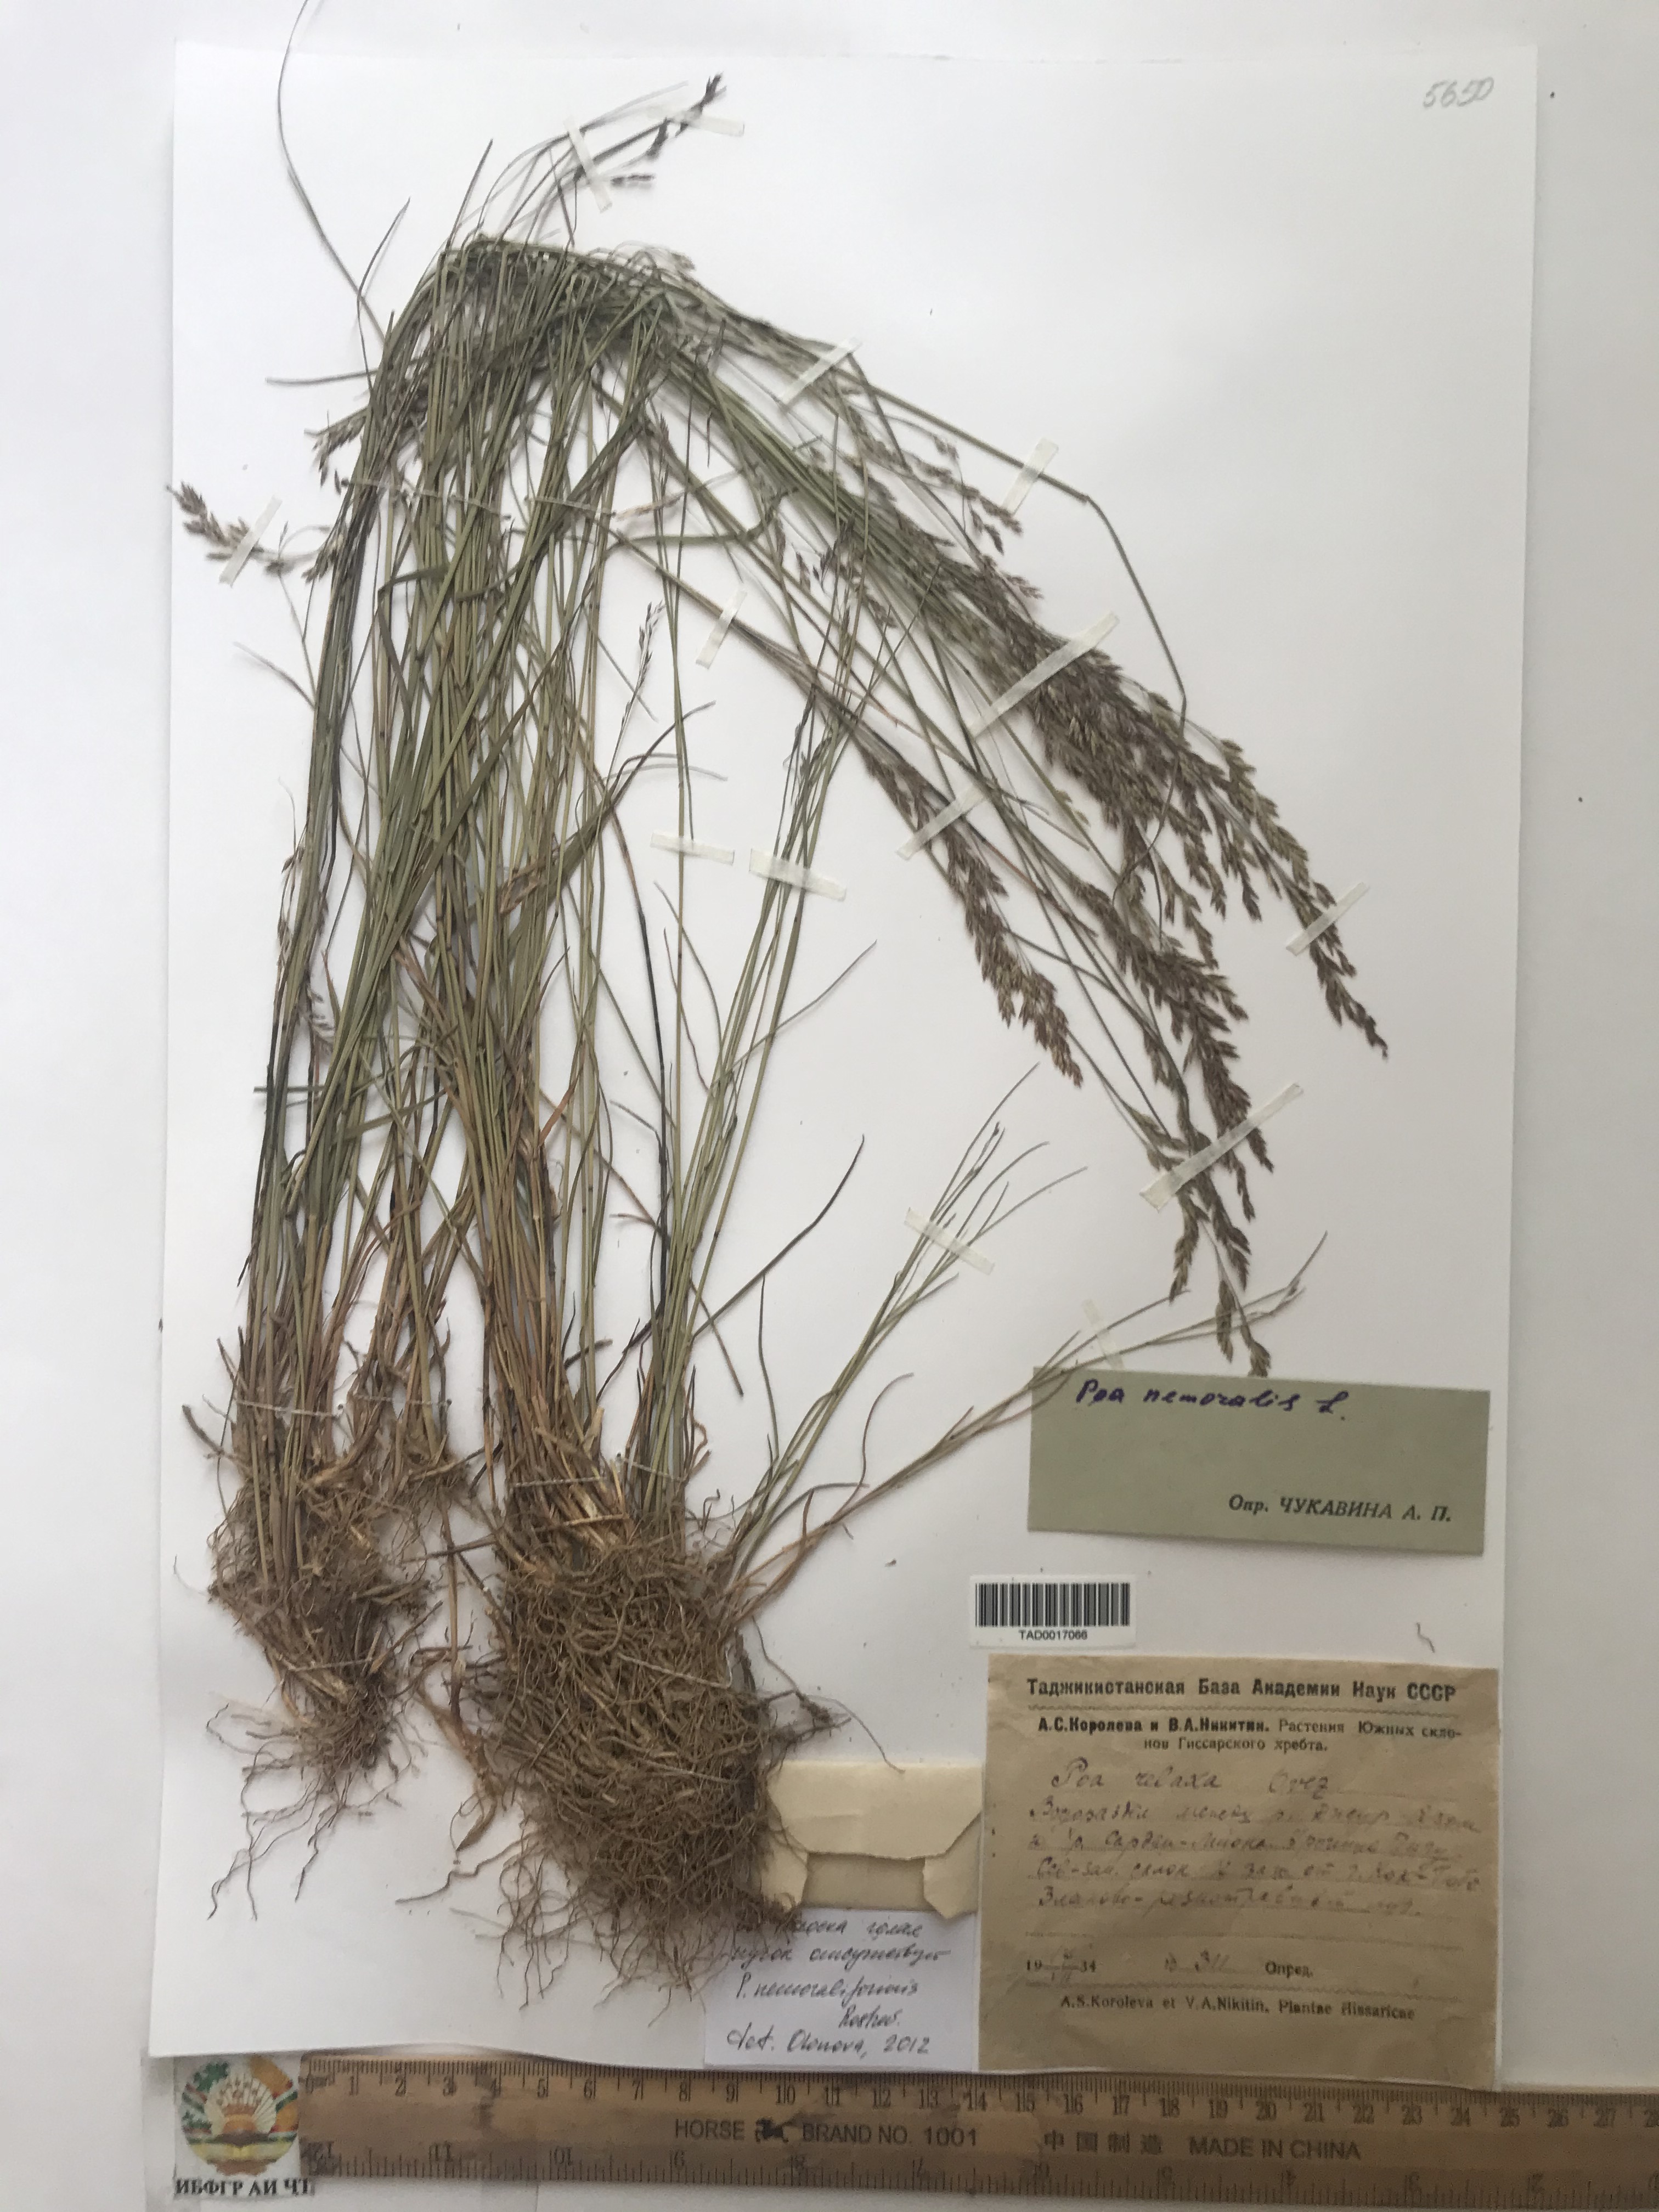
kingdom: Plantae
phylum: Tracheophyta
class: Liliopsida
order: Poales
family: Poaceae
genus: Poa
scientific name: Poa nemoralis
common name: Wood bluegrass
